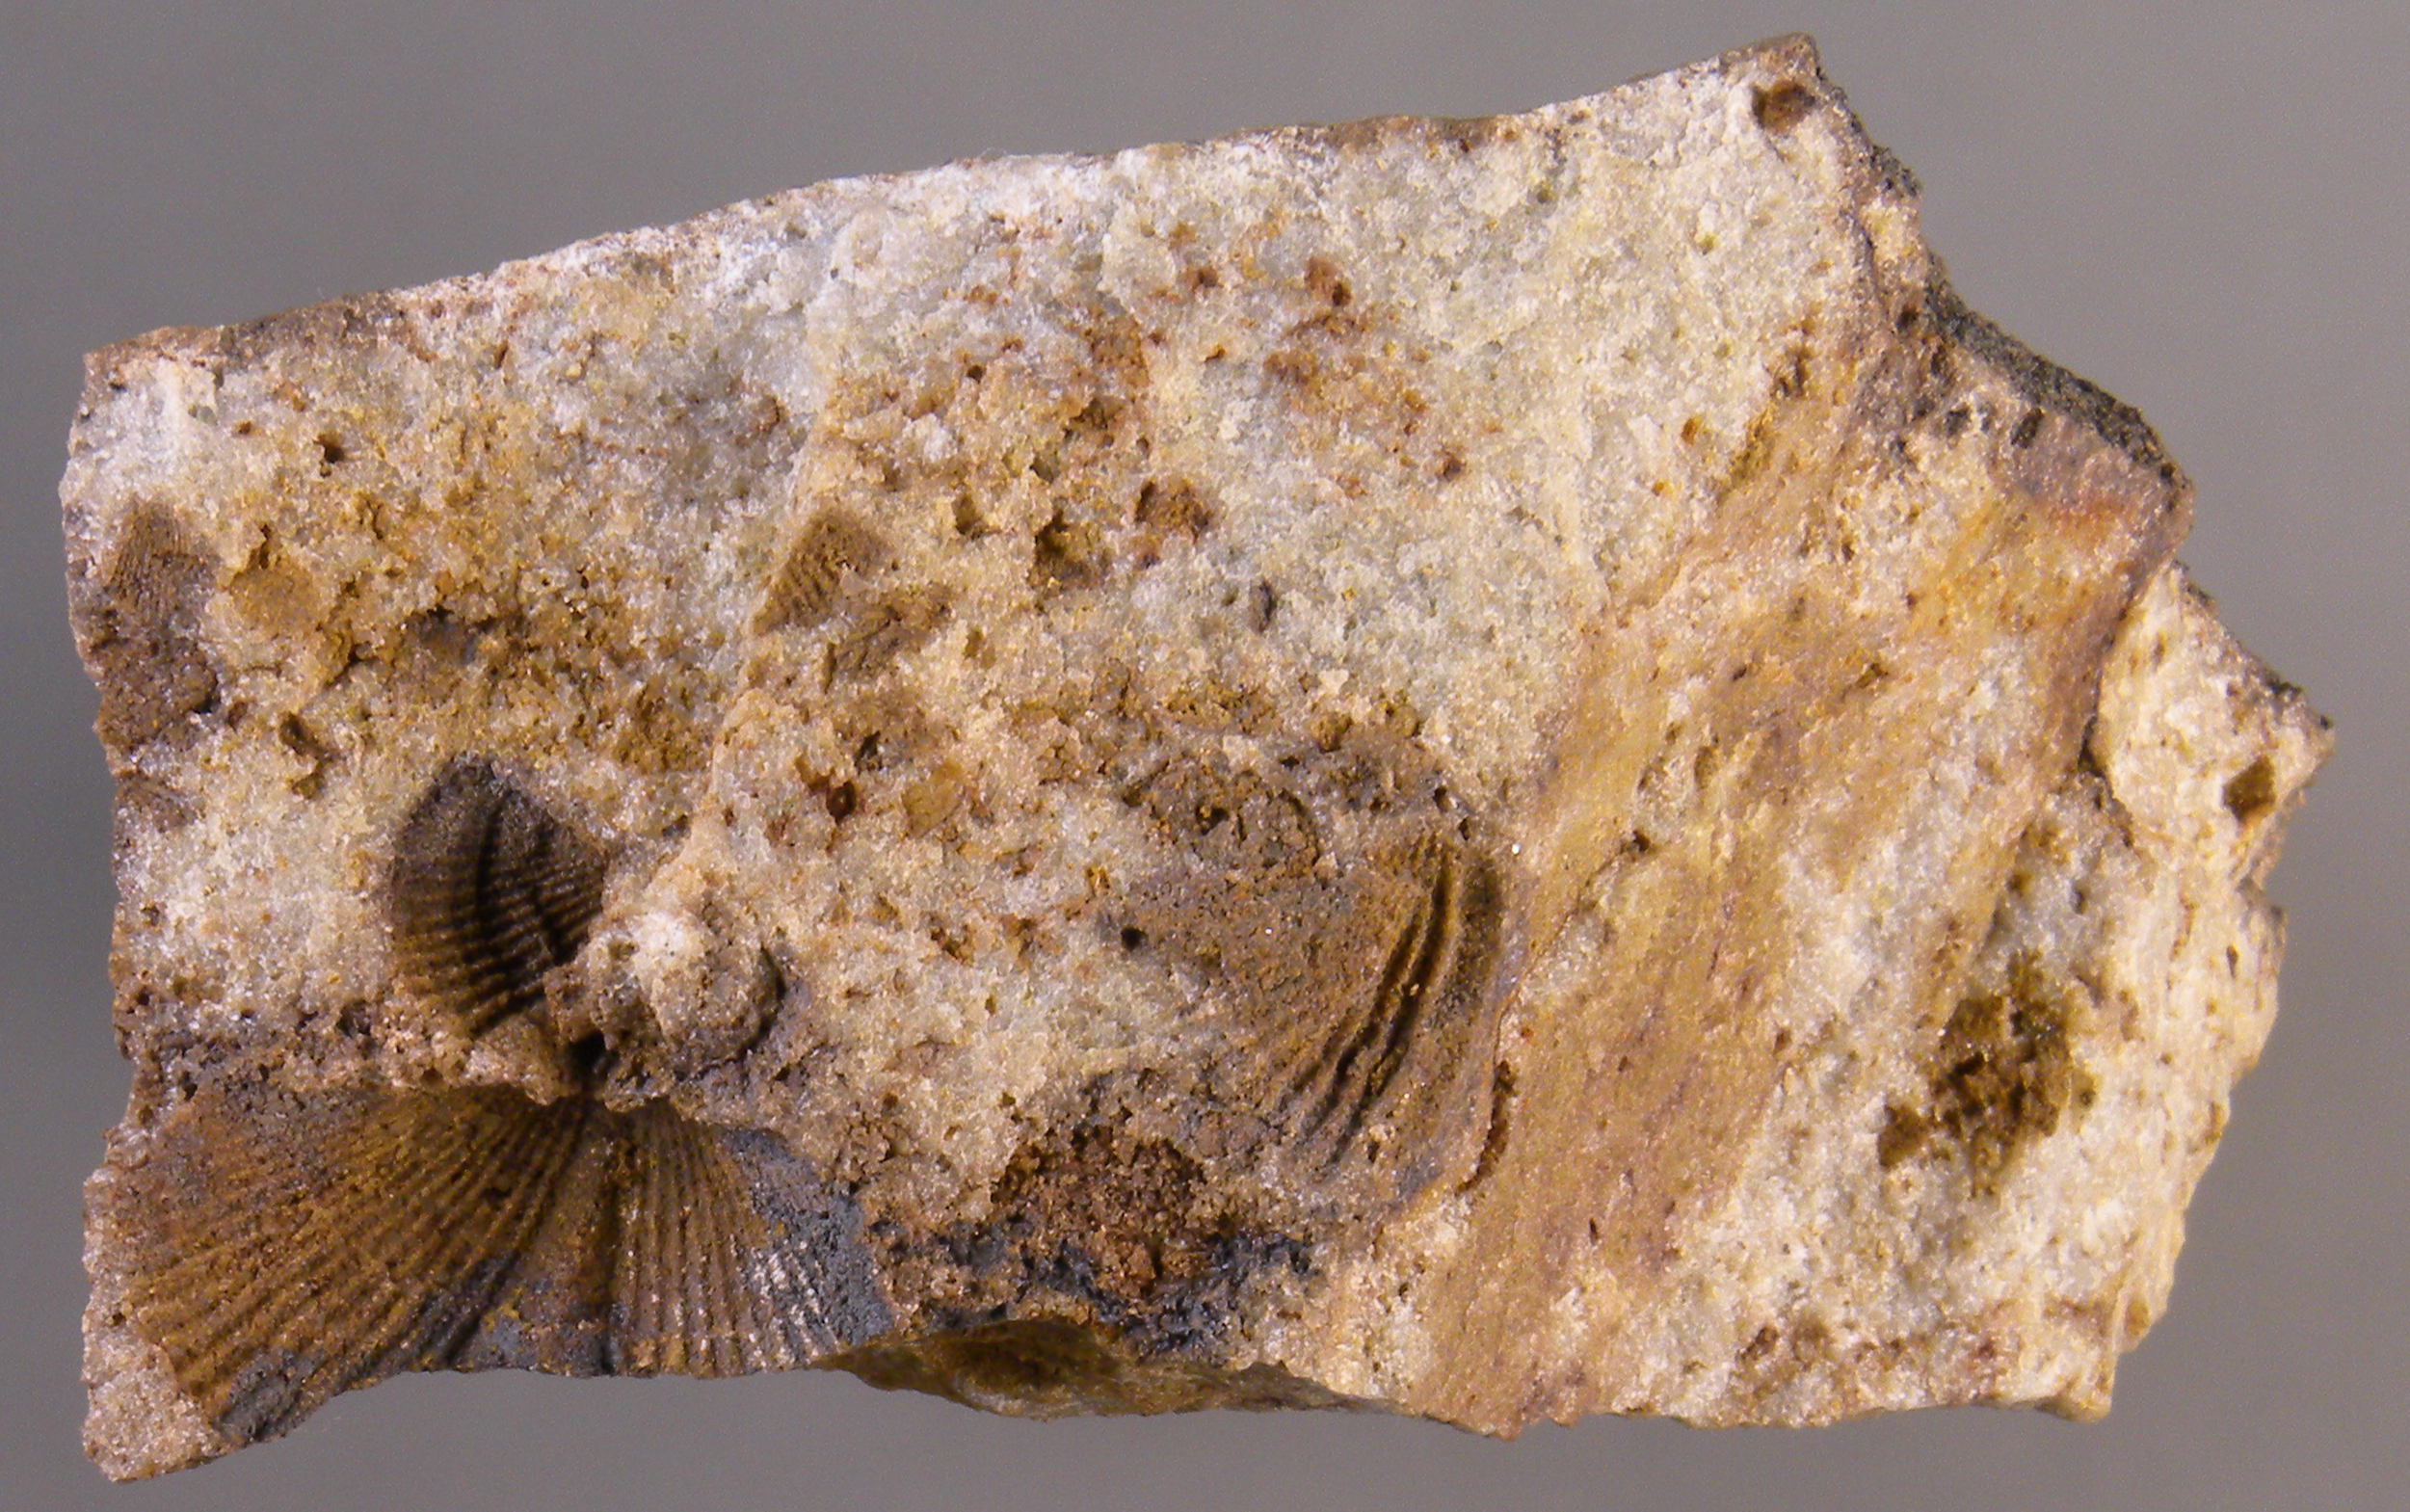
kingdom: Animalia
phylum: Brachiopoda
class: Rhynchonellata
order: Rhynchonellida
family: Trigonirhynchiidae
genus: Oligoptycherhynchus
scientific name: Oligoptycherhynchus
